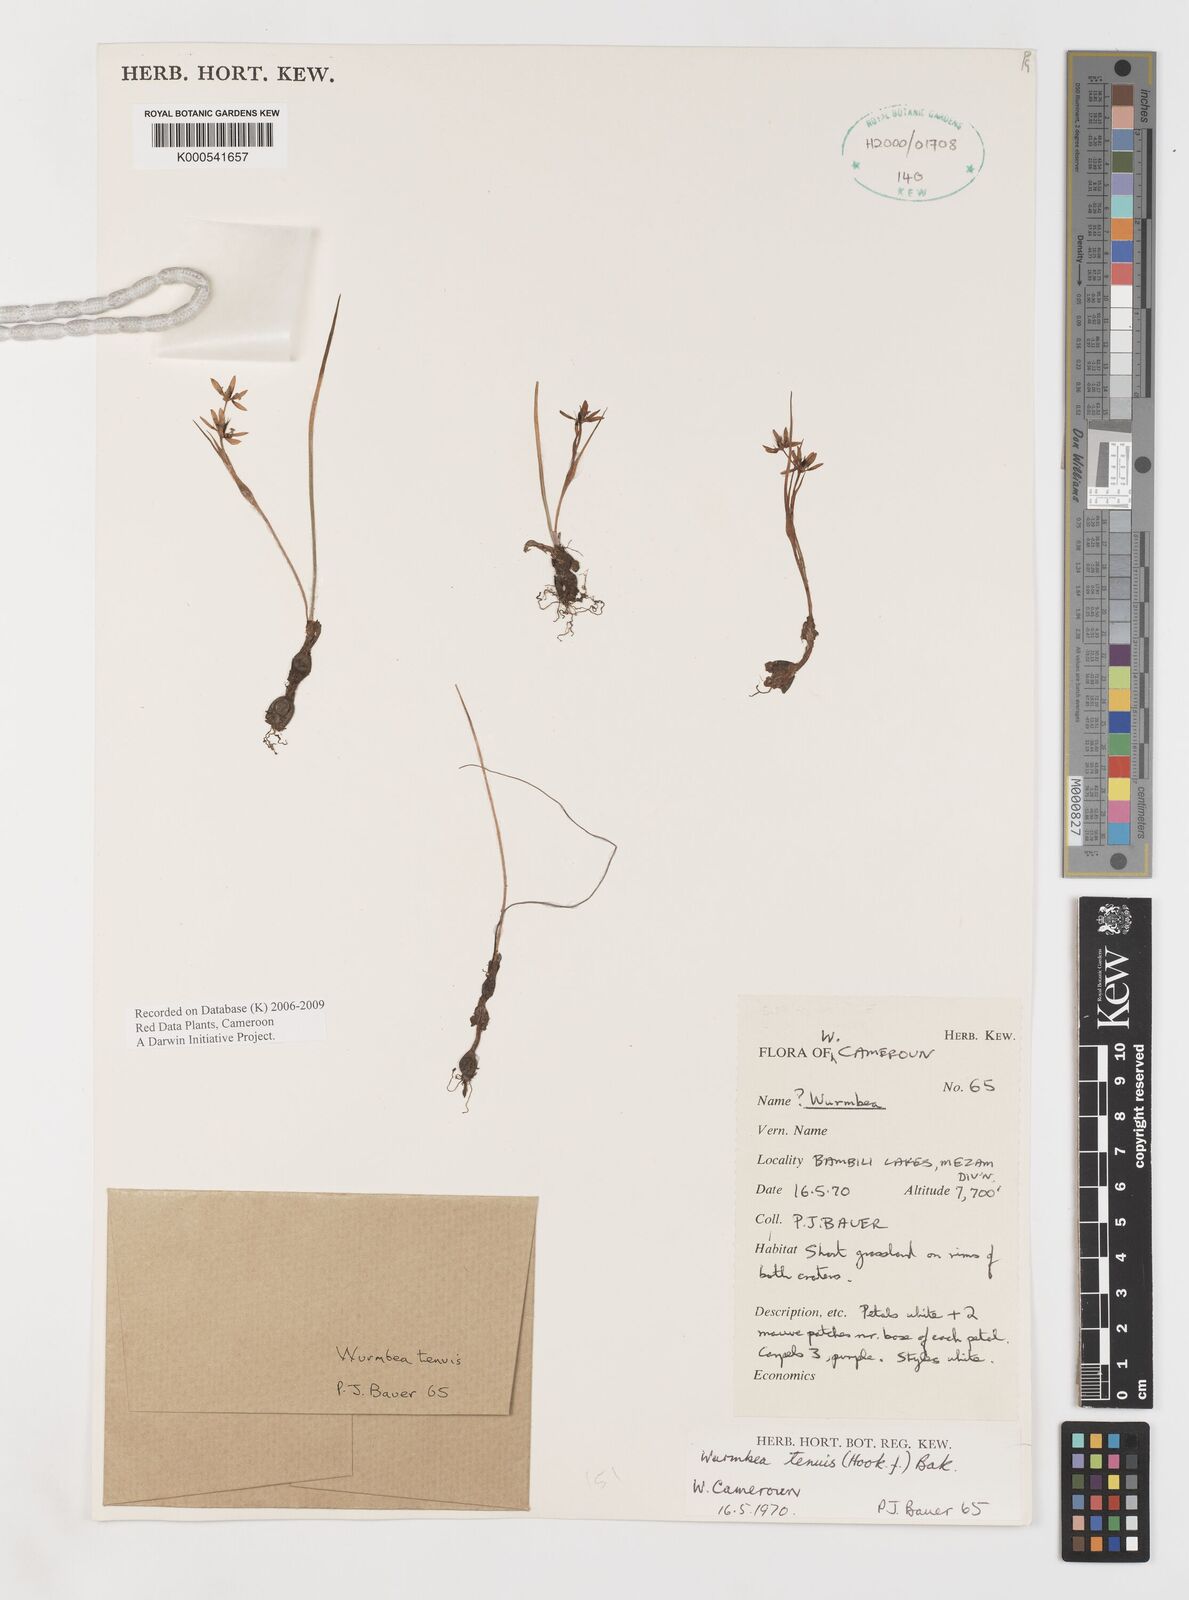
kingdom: Plantae
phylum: Tracheophyta
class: Liliopsida
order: Liliales
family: Colchicaceae
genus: Wurmbea
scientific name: Wurmbea tenuis
